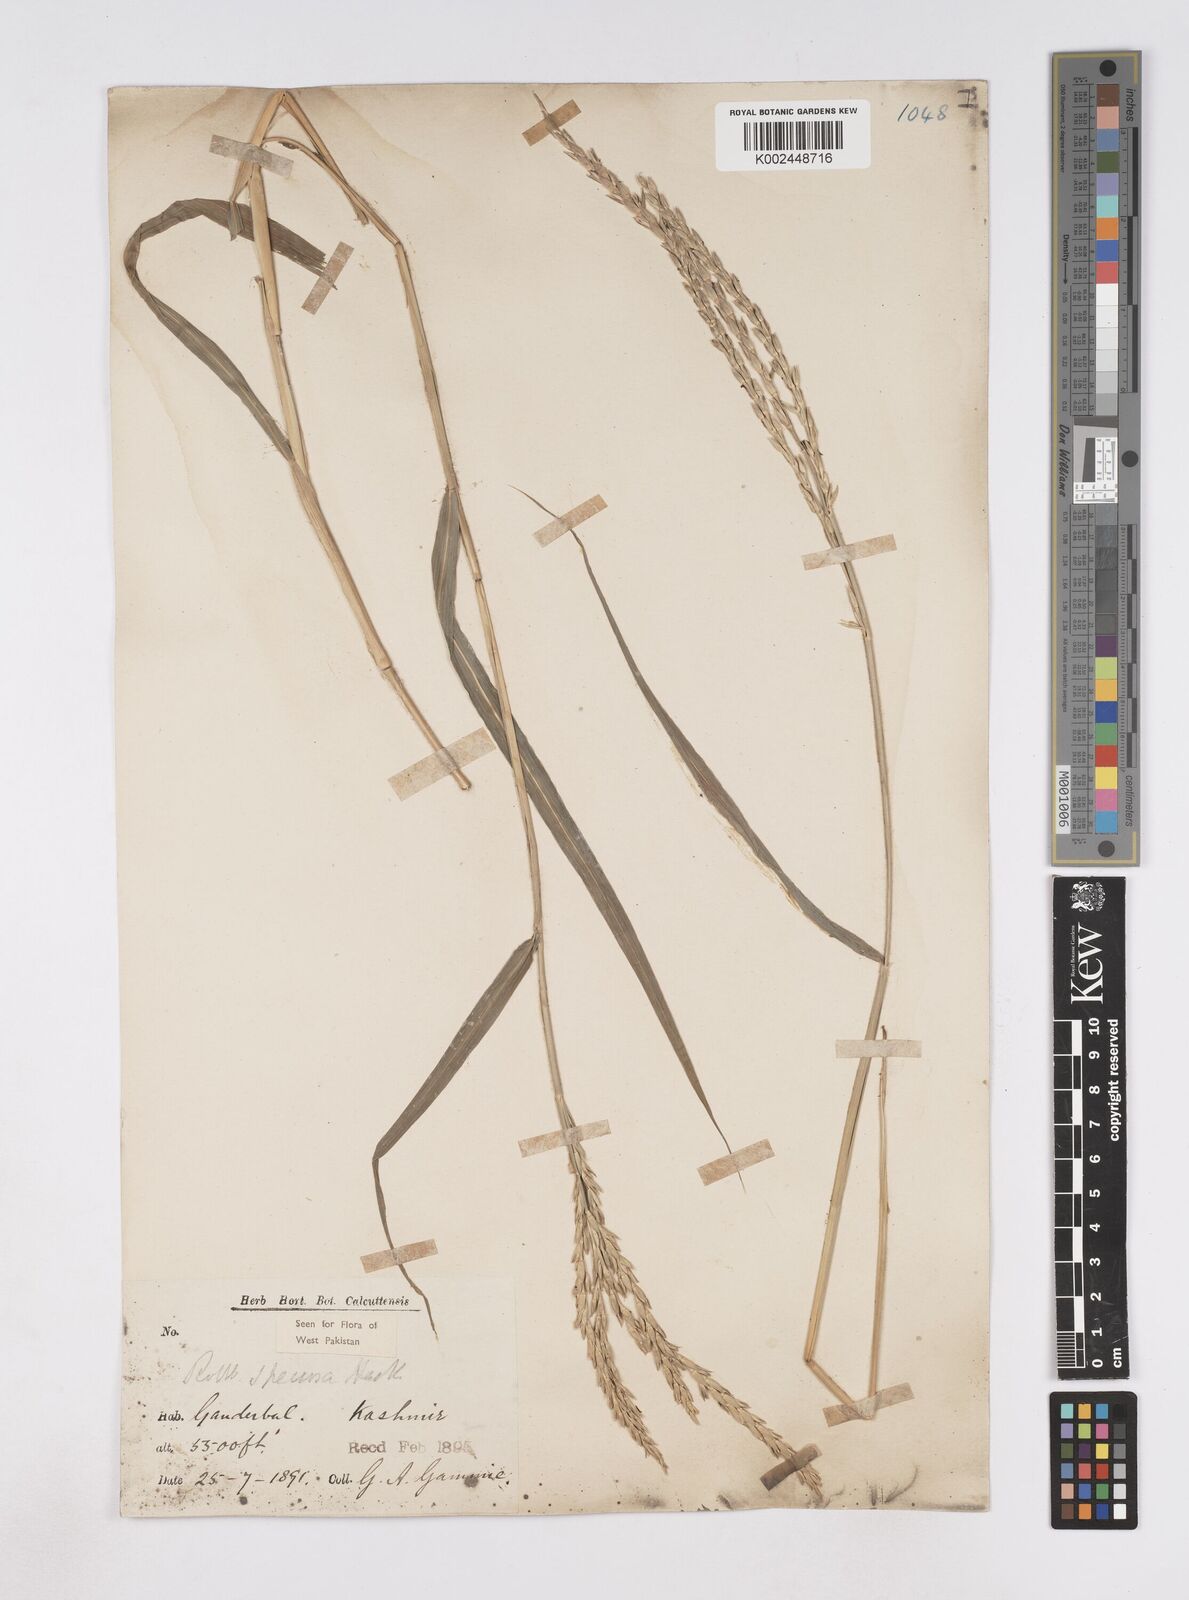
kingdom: Plantae
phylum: Tracheophyta
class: Liliopsida
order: Poales
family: Poaceae
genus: Phacelurus
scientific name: Phacelurus speciosus
